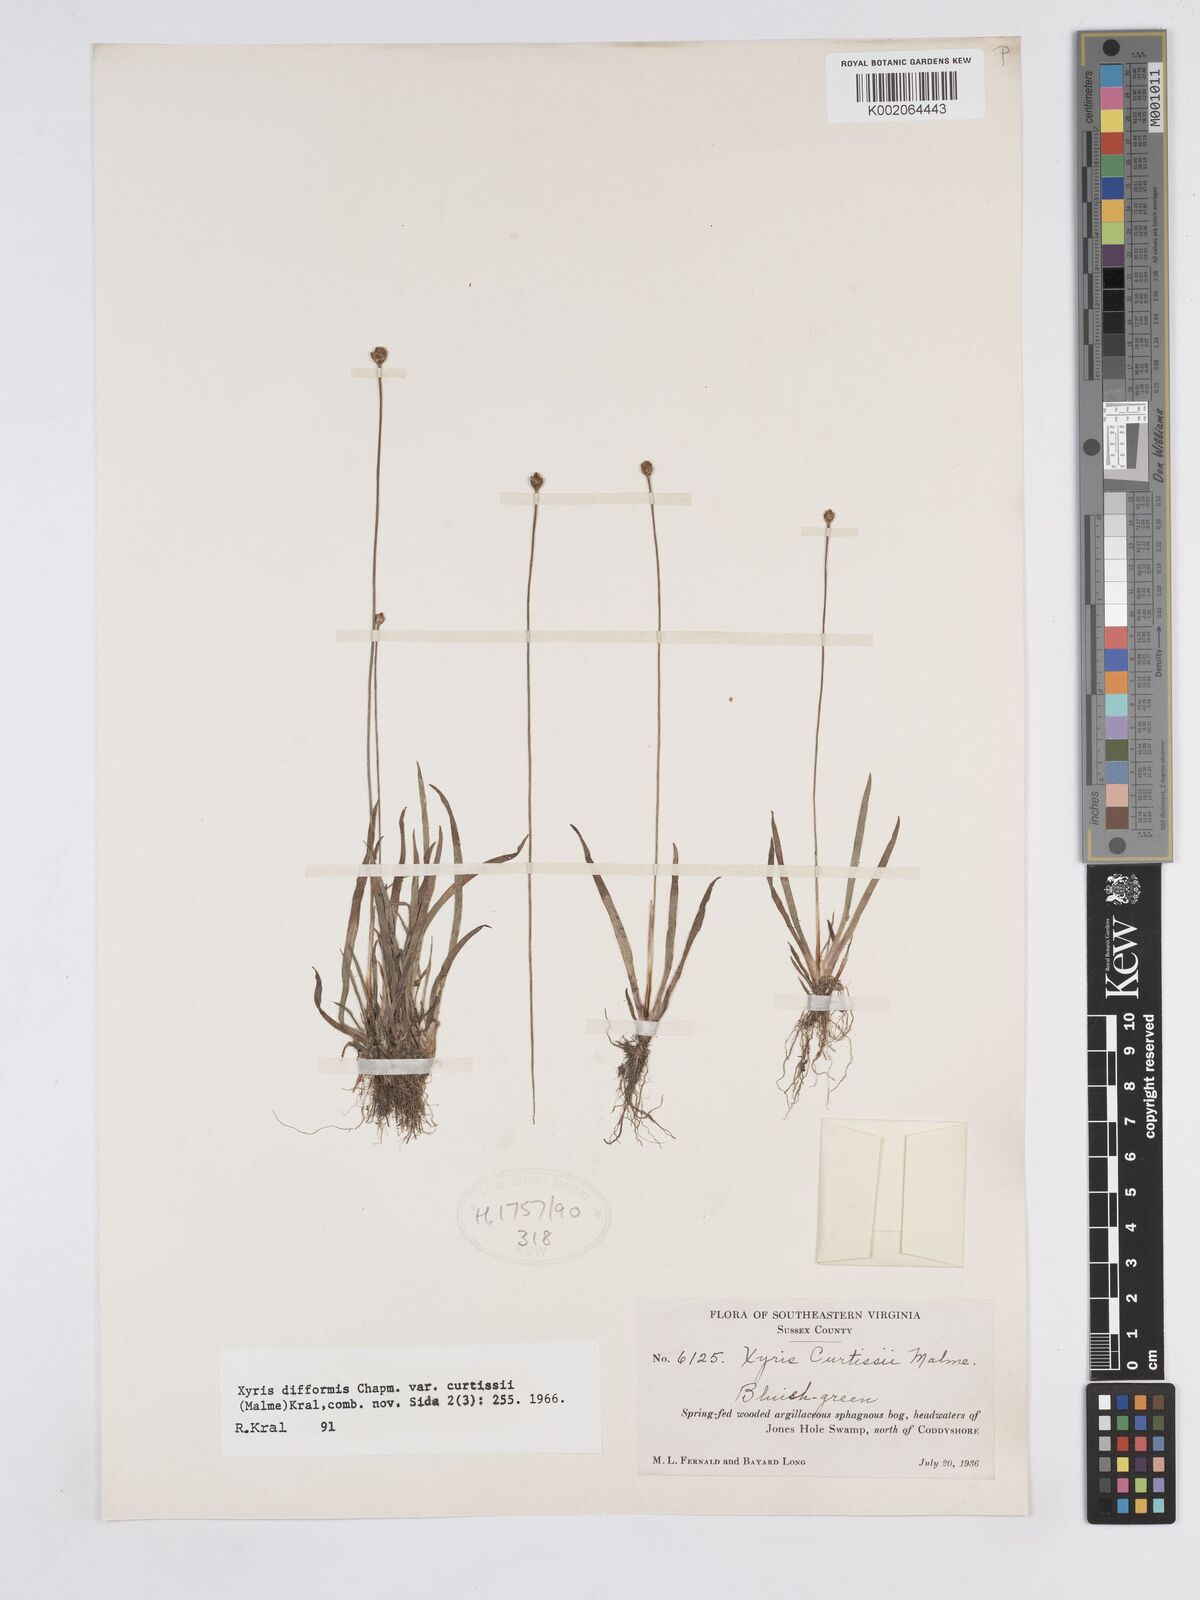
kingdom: Plantae
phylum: Tracheophyta
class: Liliopsida
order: Poales
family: Xyridaceae
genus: Xyris
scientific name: Xyris difformis
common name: Bog yellow-eyed-grass
